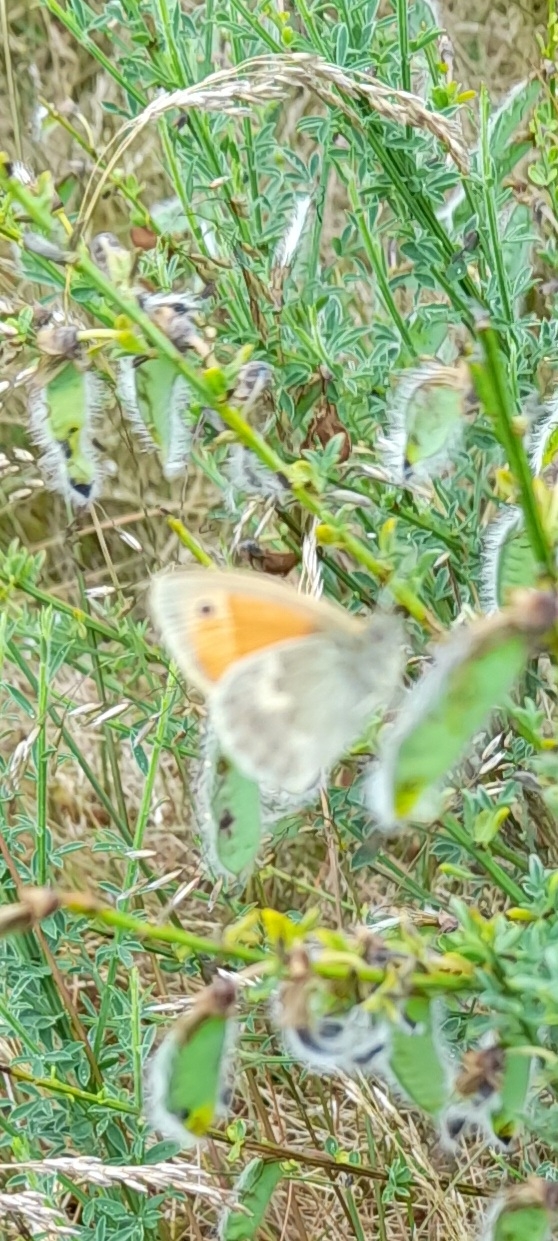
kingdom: Animalia
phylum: Arthropoda
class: Insecta
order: Lepidoptera
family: Nymphalidae
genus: Coenonympha
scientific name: Coenonympha pamphilus
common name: Okkergul randøje
